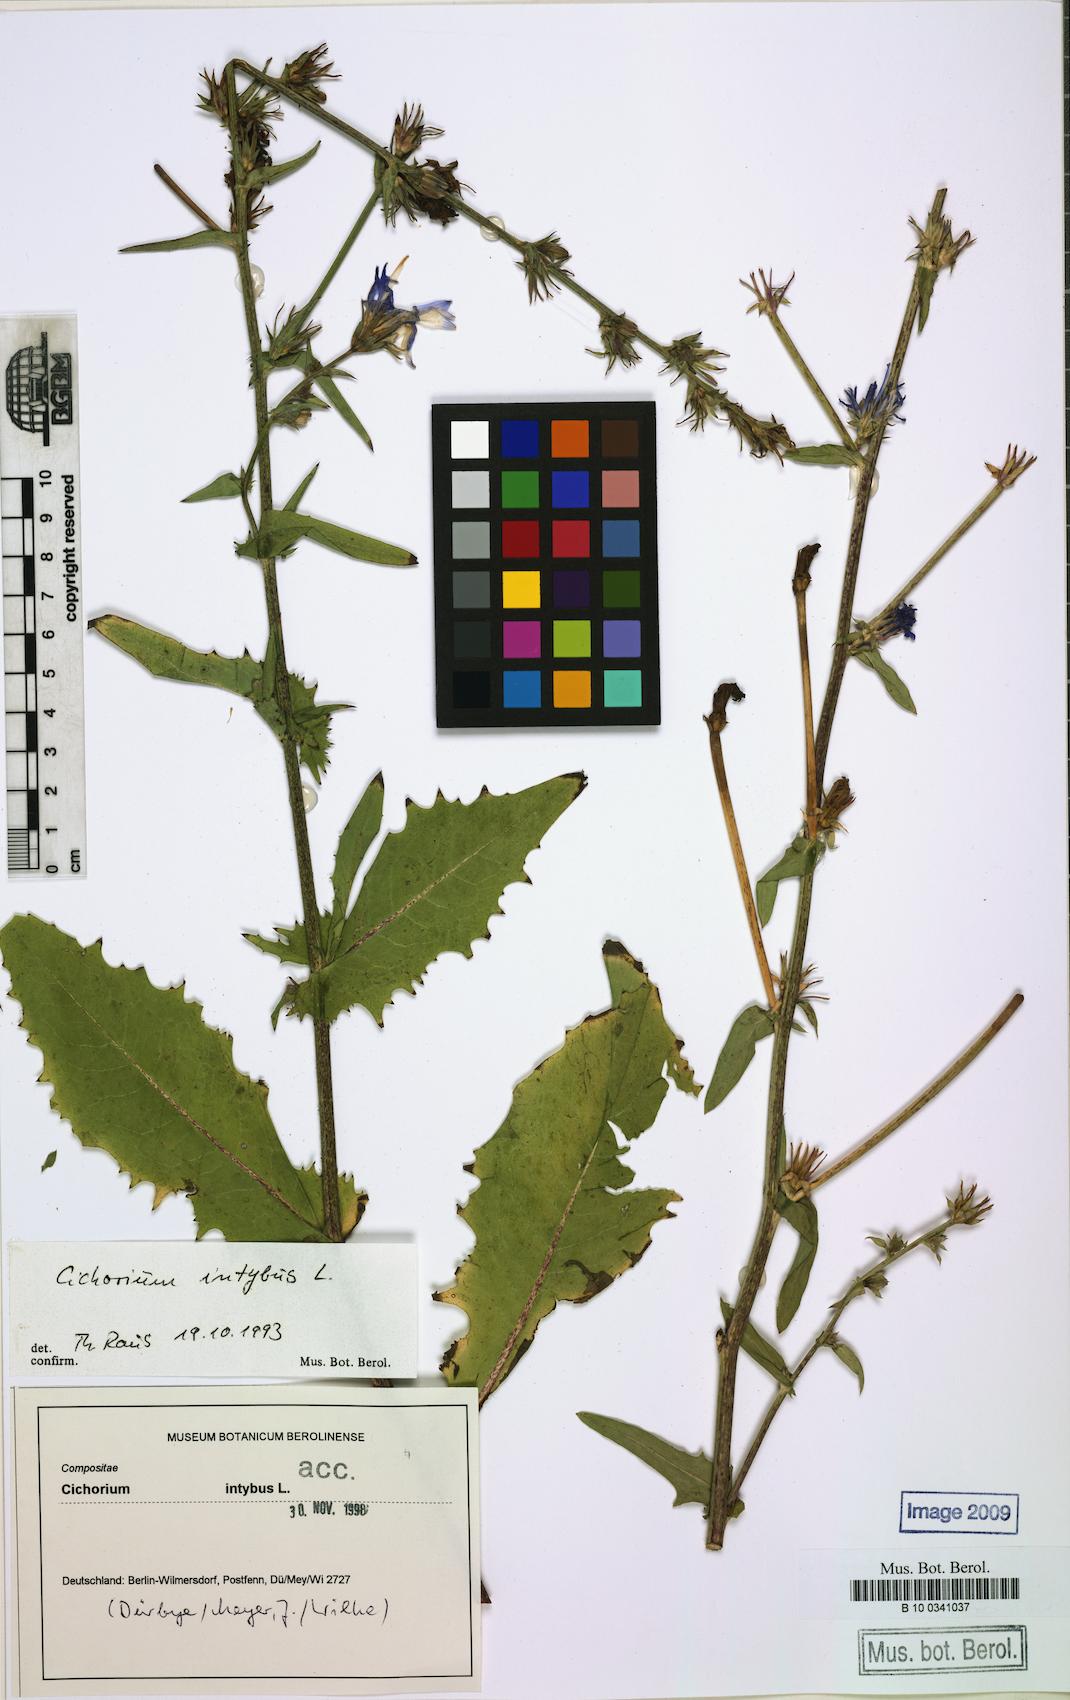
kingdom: Plantae
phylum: Tracheophyta
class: Magnoliopsida
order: Asterales
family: Asteraceae
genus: Cichorium
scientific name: Cichorium intybus
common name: Chicory
